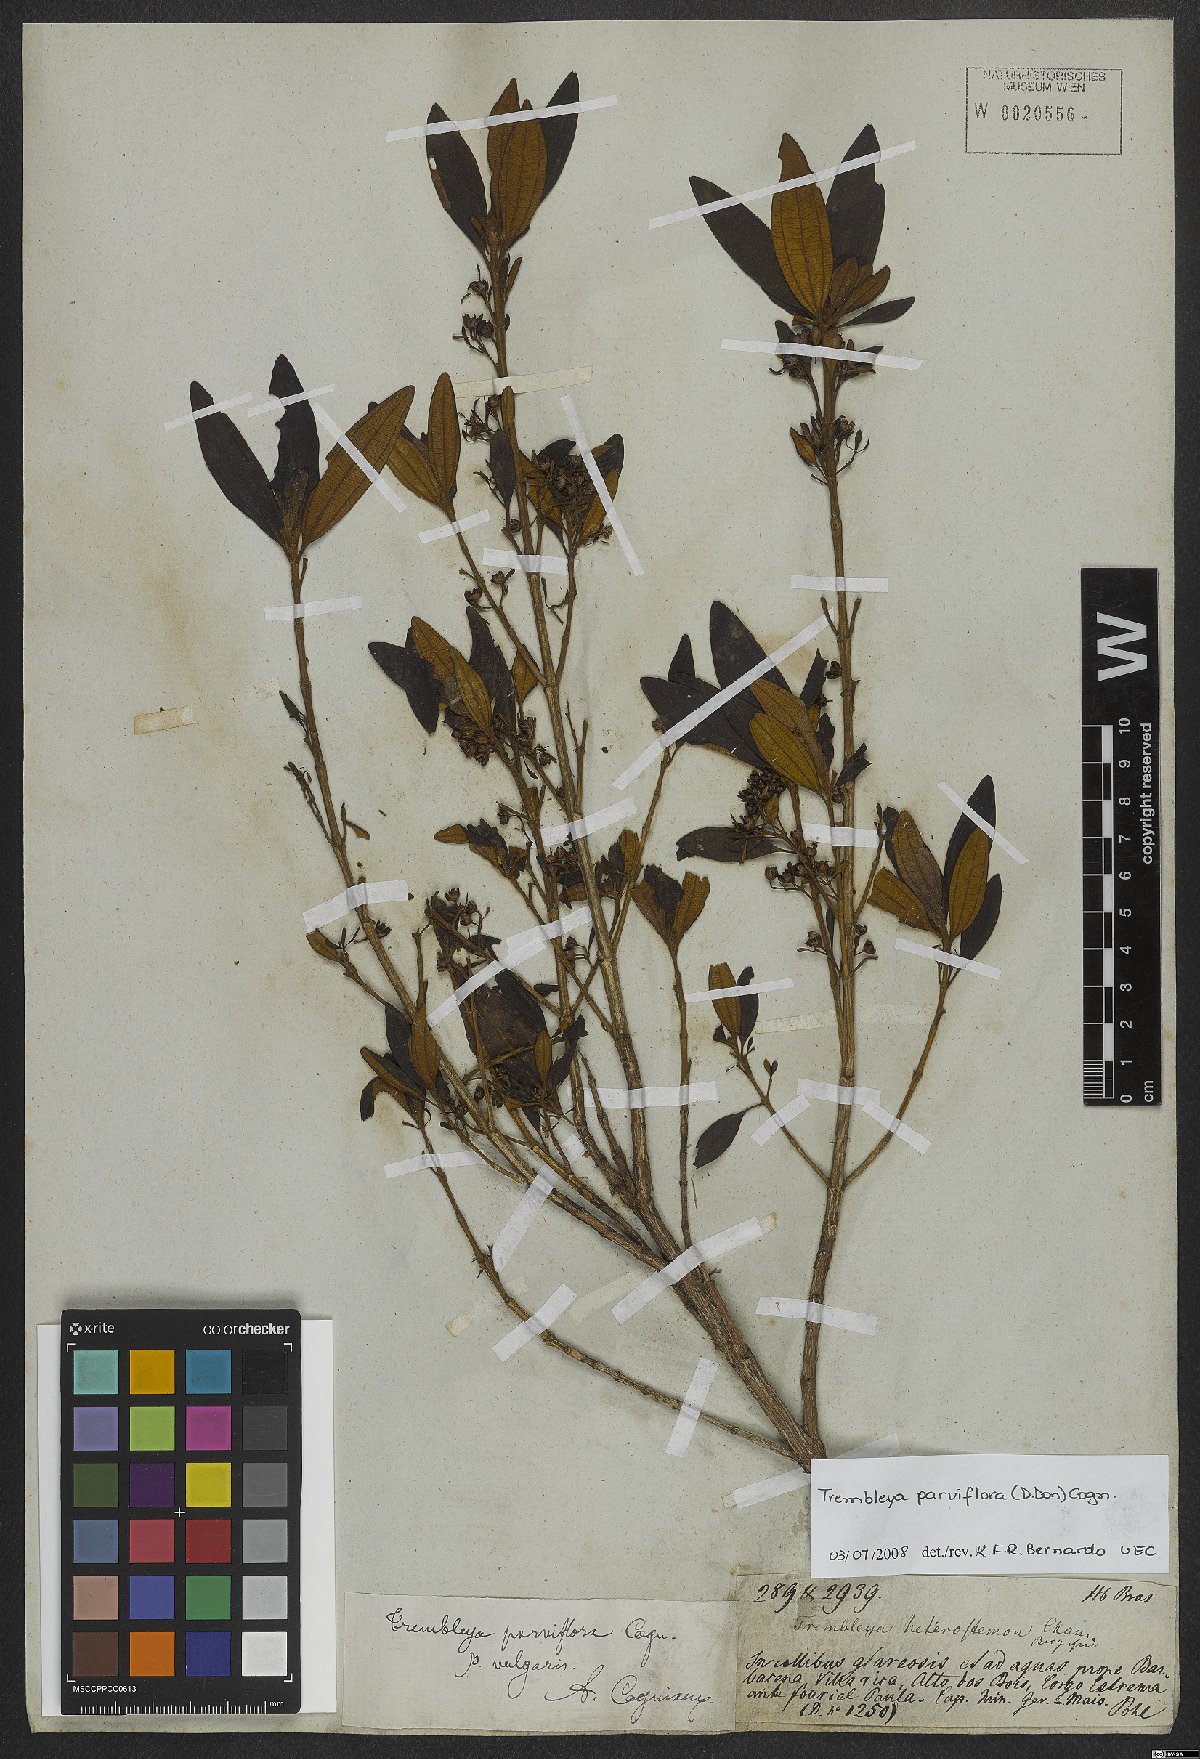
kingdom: Plantae
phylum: Tracheophyta
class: Magnoliopsida
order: Myrtales
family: Melastomataceae
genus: Microlicia
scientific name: Microlicia parviflora
